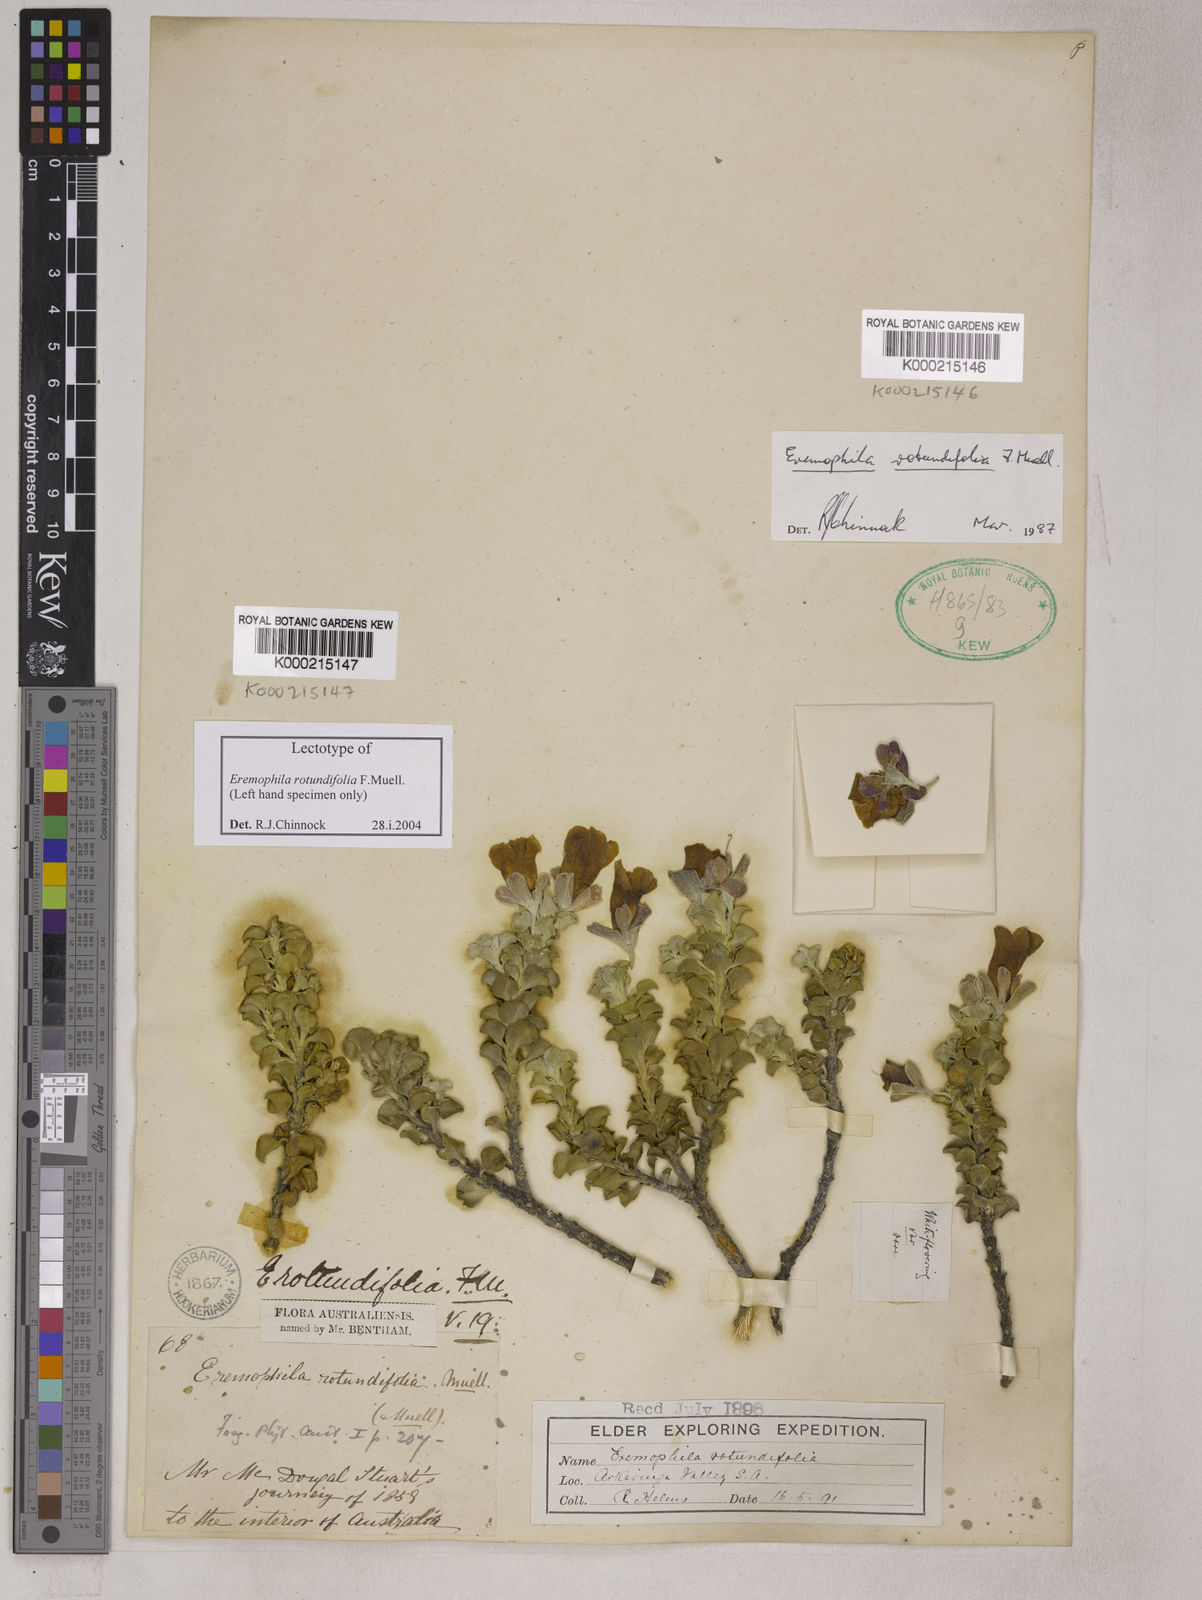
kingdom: Plantae
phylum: Tracheophyta
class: Magnoliopsida
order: Lamiales
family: Scrophulariaceae
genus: Eremophila
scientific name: Eremophila oppositifolia
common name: Mountain-sandalwood
